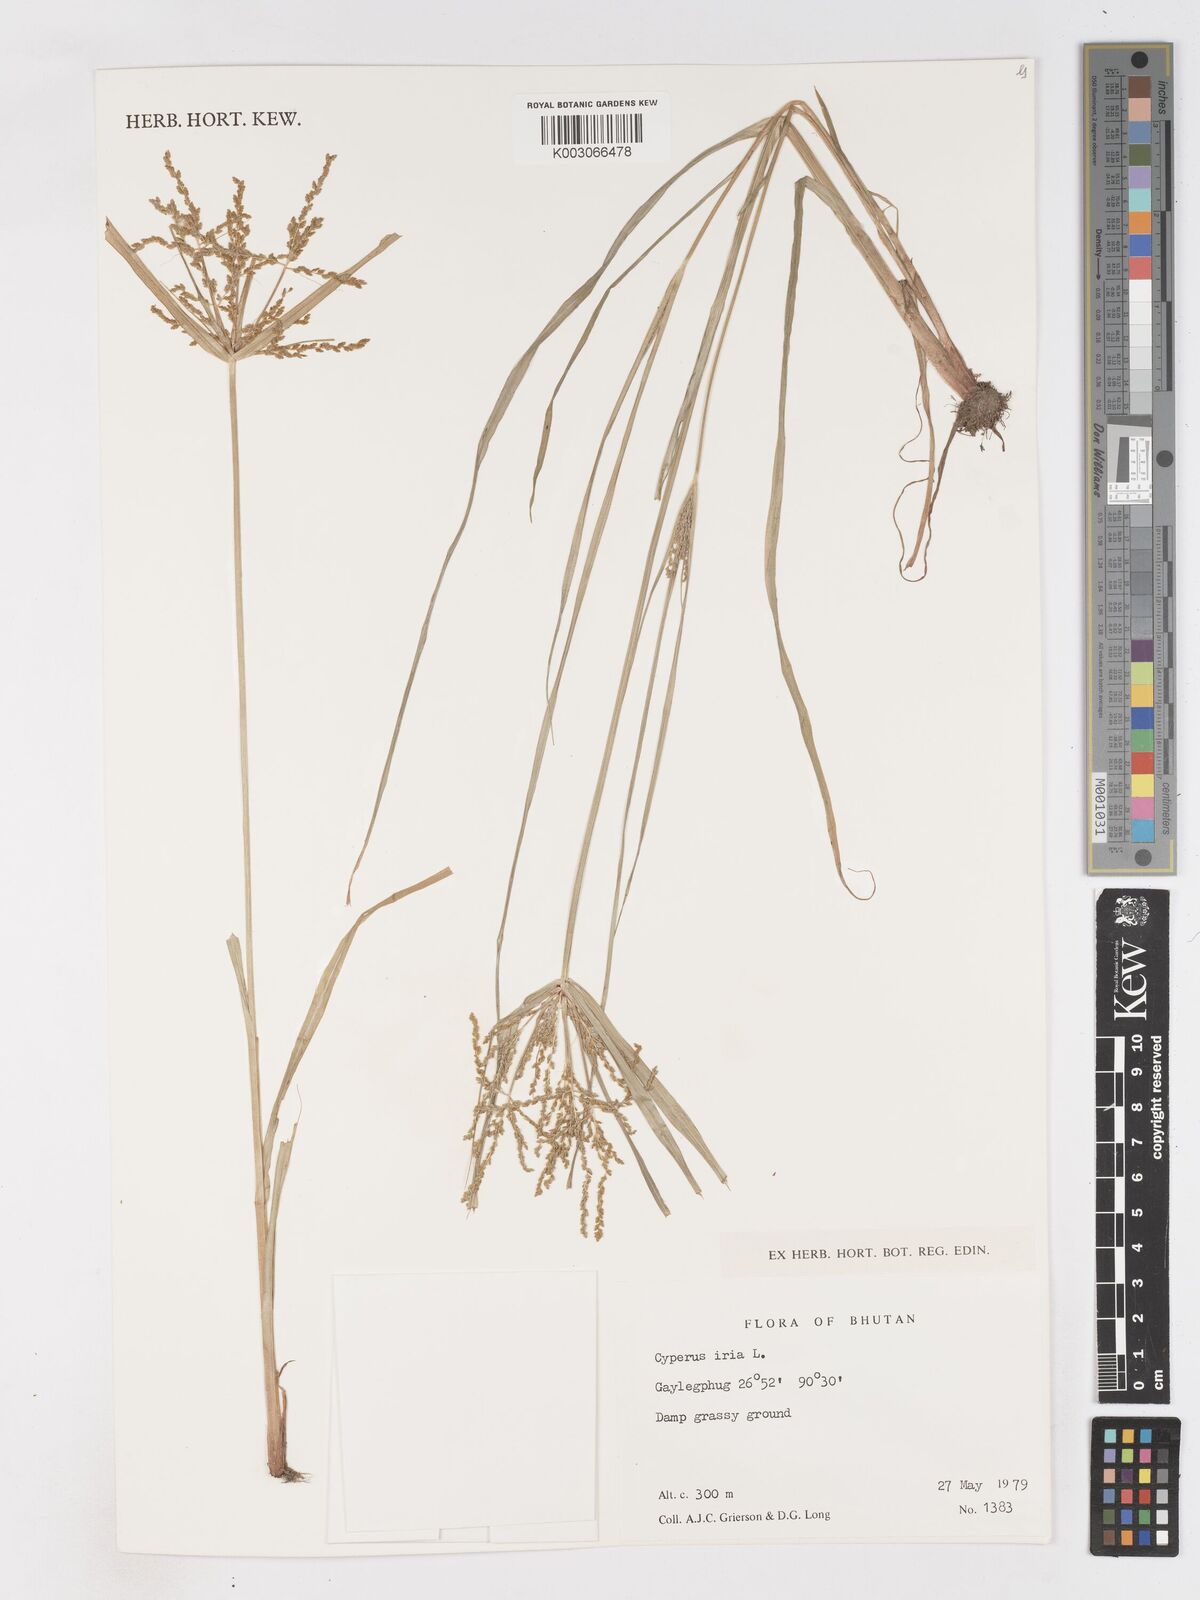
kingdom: Plantae
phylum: Tracheophyta
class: Liliopsida
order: Poales
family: Cyperaceae
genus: Cyperus
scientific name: Cyperus iria
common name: Ricefield flatsedge
